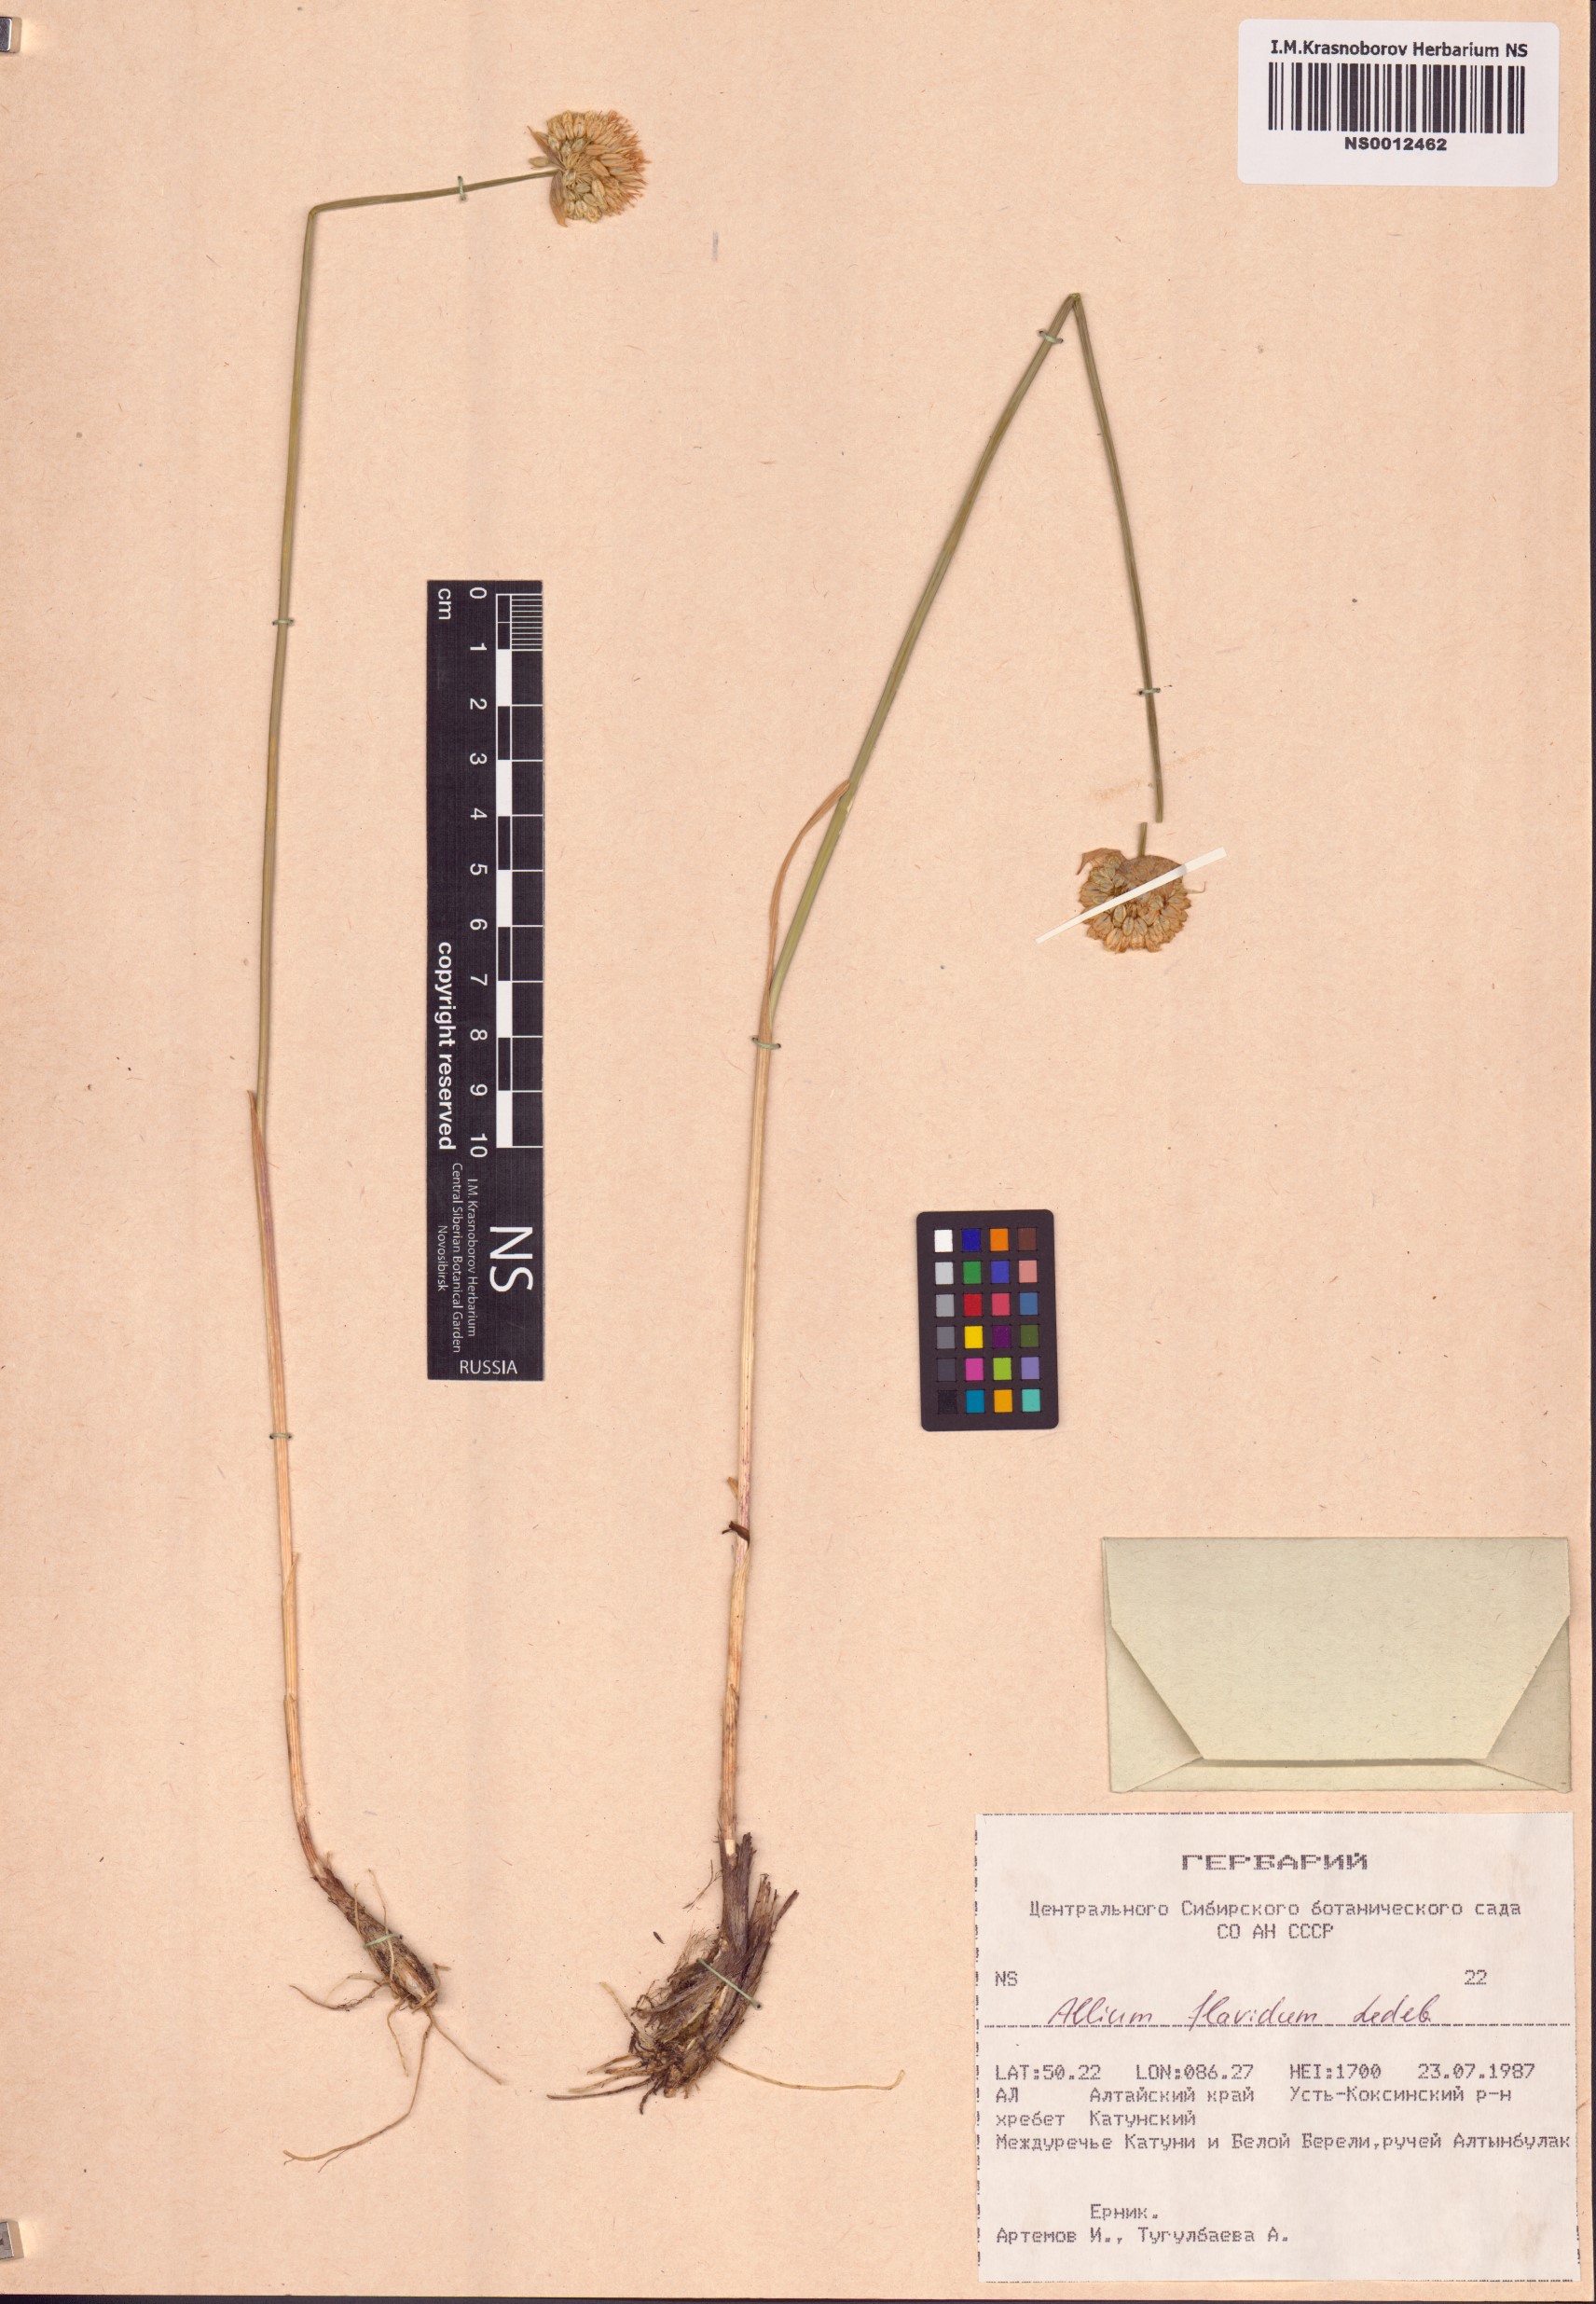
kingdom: Plantae
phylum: Tracheophyta
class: Liliopsida
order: Asparagales
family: Amaryllidaceae
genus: Allium
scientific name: Allium flavidum
